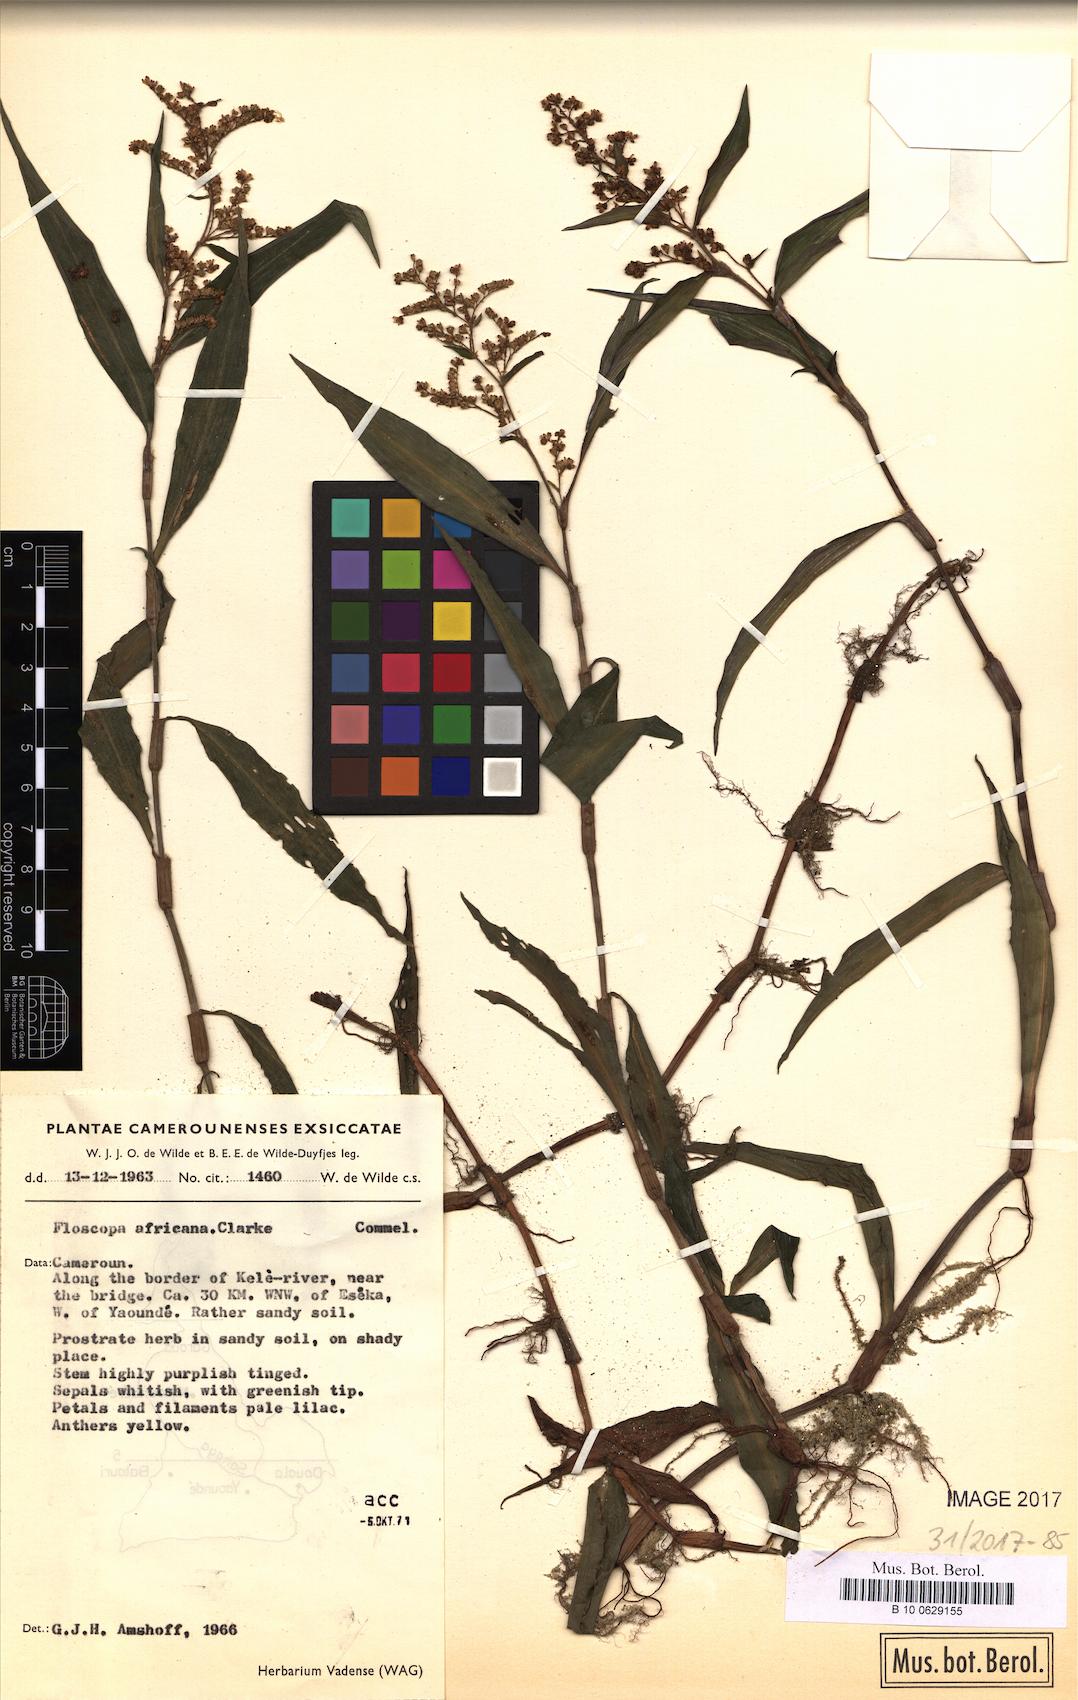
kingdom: Plantae
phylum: Tracheophyta
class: Liliopsida
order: Commelinales
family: Commelinaceae
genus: Floscopa
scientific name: Floscopa africana
